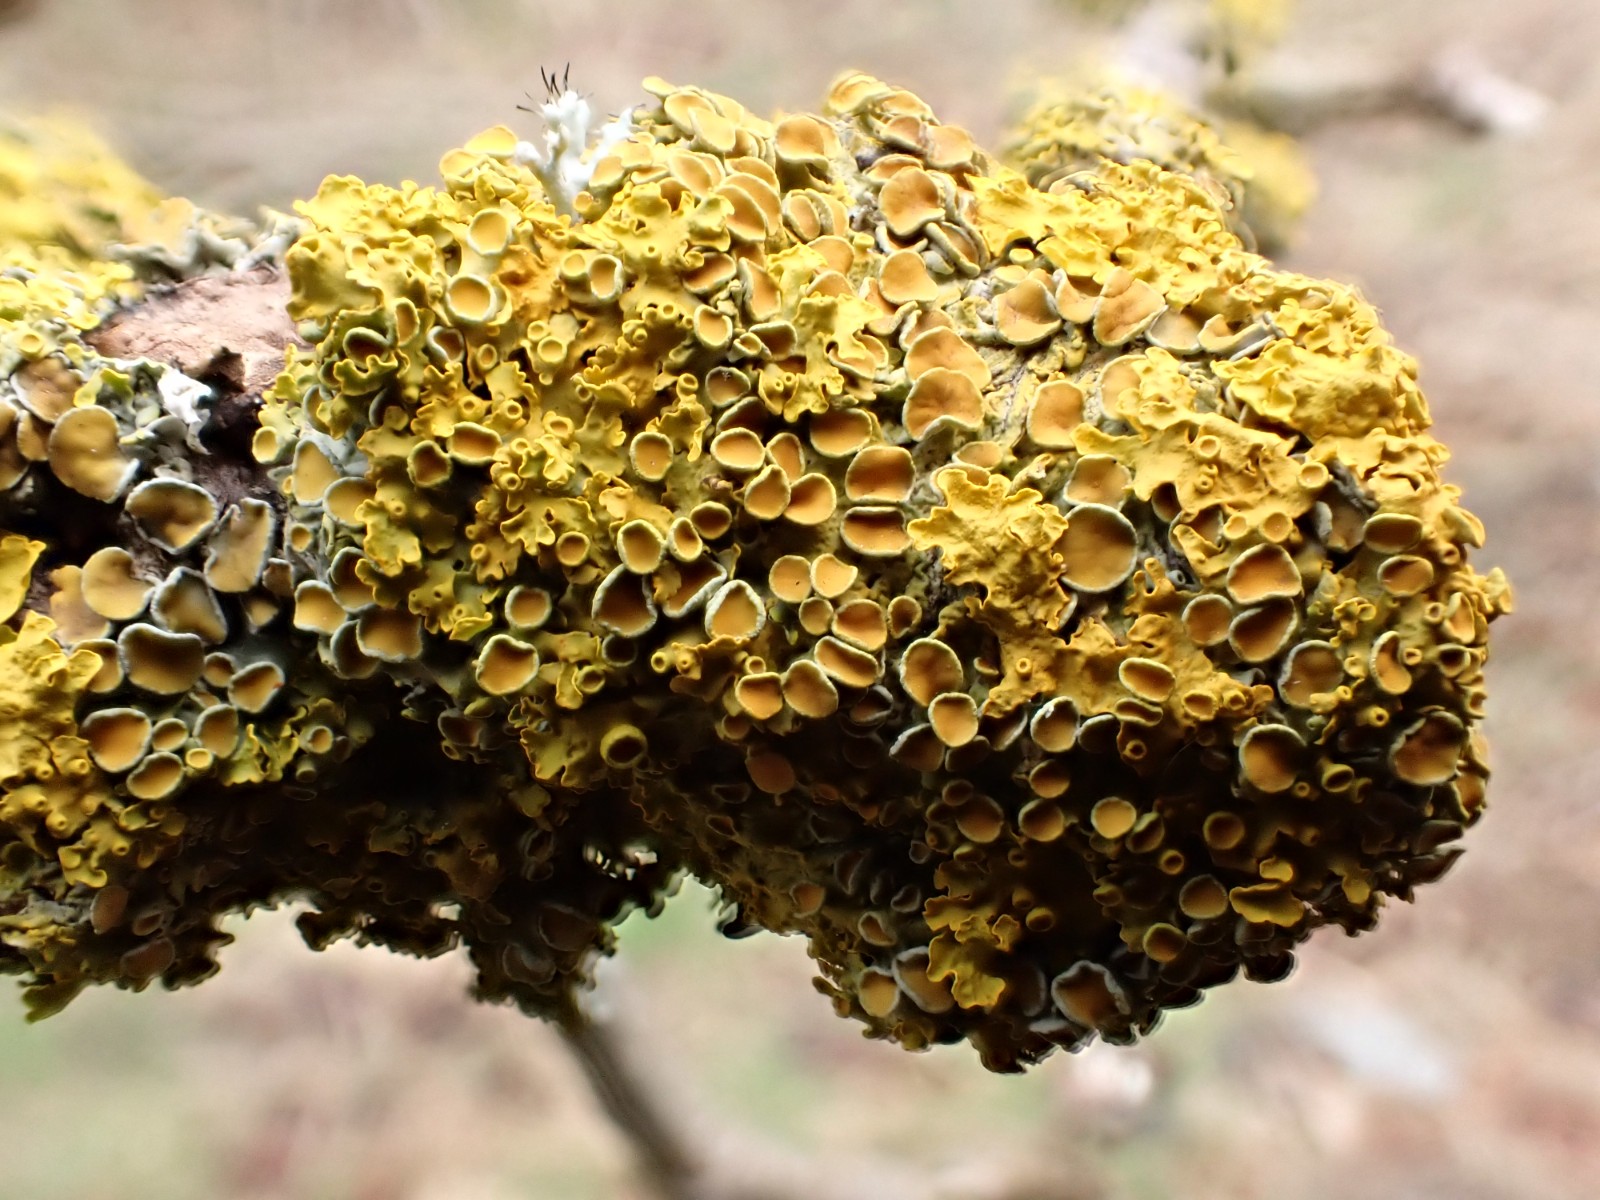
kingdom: Fungi
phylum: Ascomycota
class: Lecanoromycetes
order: Teloschistales
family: Teloschistaceae
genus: Xanthoria
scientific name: Xanthoria parietina
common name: almindelig væggelav
